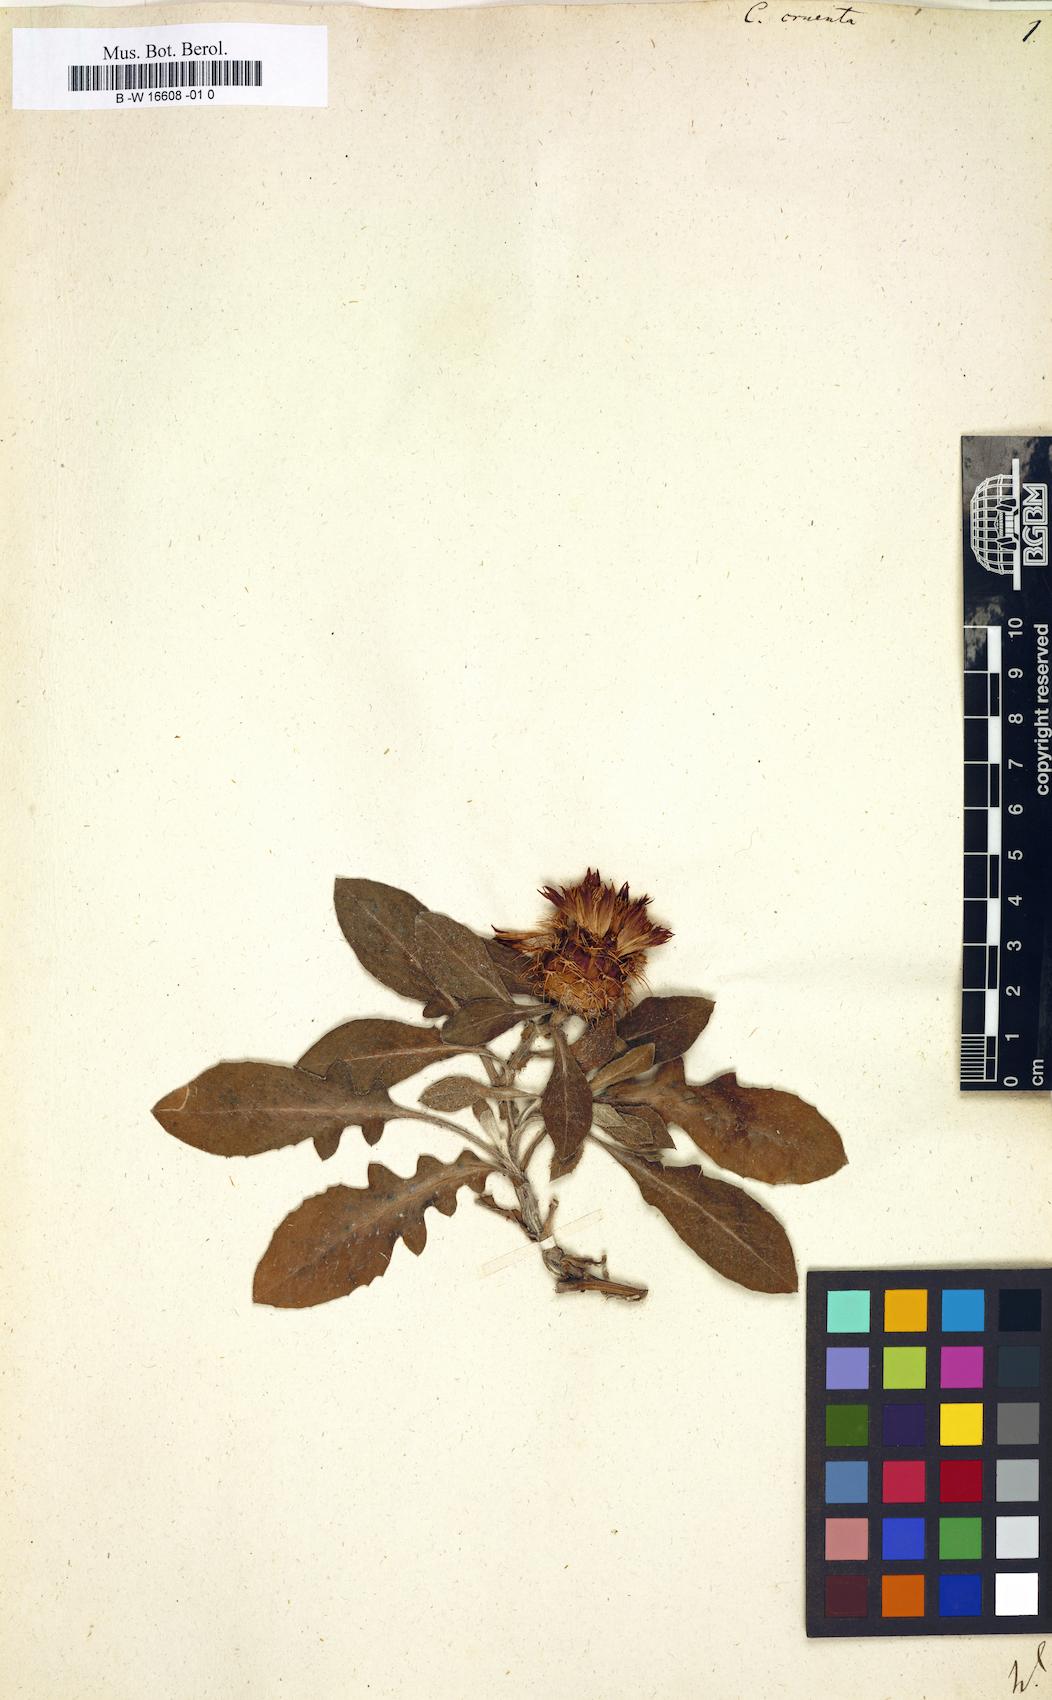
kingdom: Plantae
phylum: Tracheophyta
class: Magnoliopsida
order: Asterales
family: Asteraceae
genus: Centaurea
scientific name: Centaurea seridis
